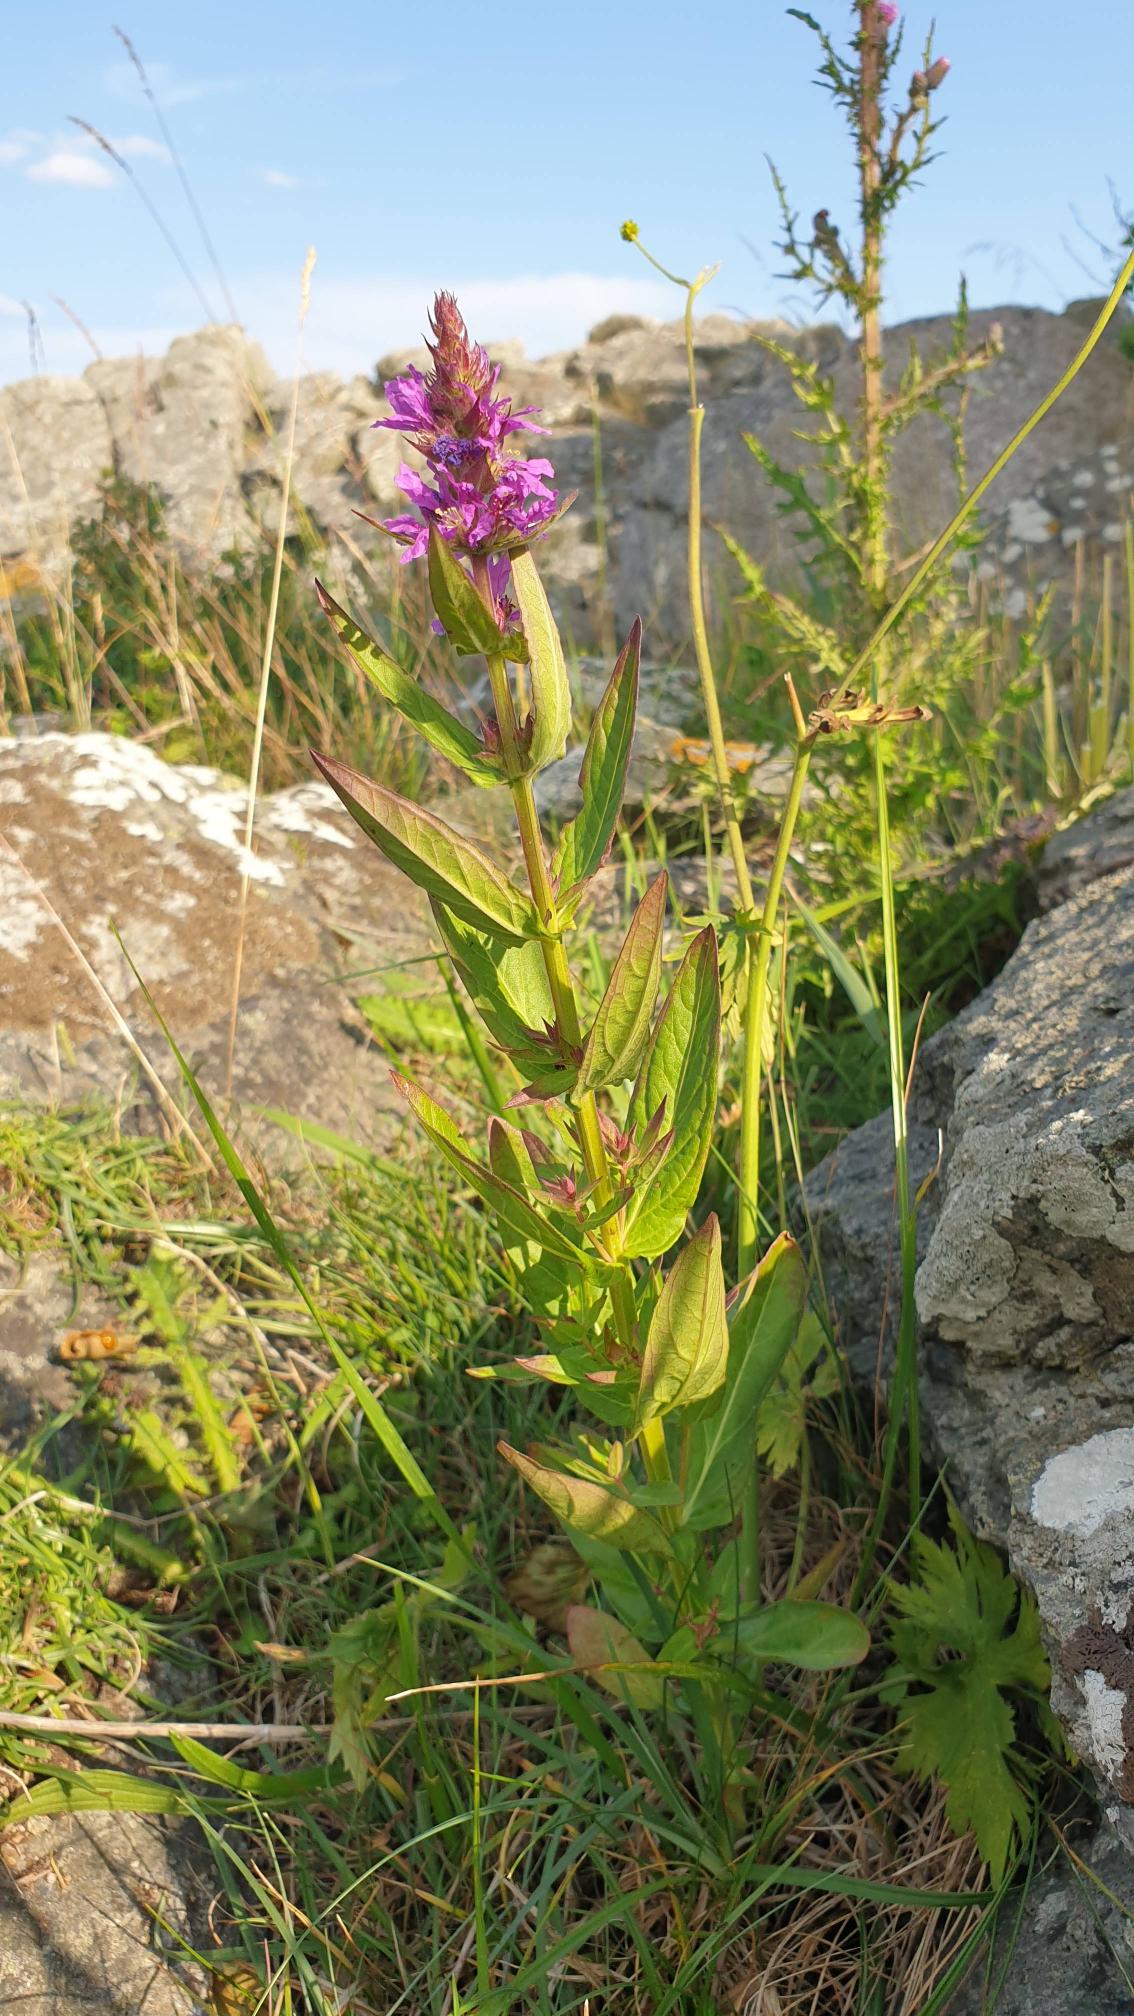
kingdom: Plantae
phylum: Tracheophyta
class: Magnoliopsida
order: Myrtales
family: Lythraceae
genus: Lythrum
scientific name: Lythrum salicaria
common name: Kattehale
